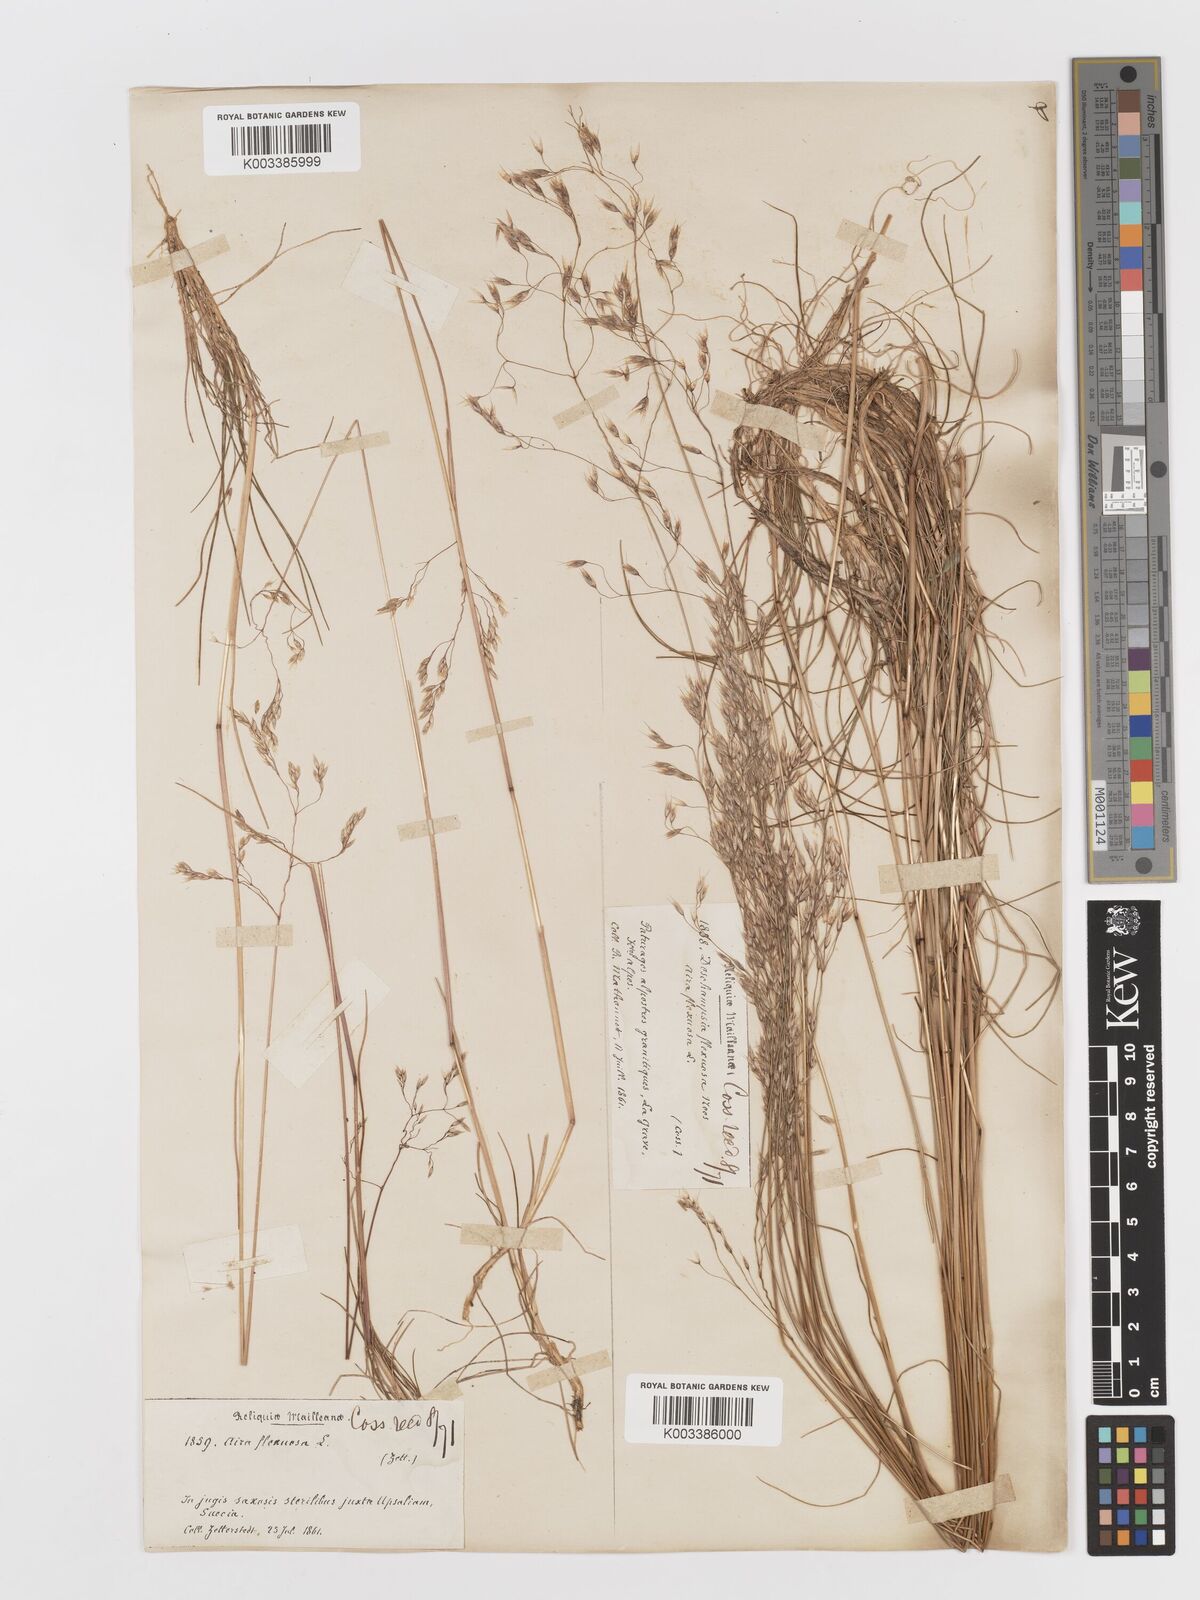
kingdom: Plantae
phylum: Tracheophyta
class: Liliopsida
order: Poales
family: Poaceae
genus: Avenella
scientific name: Avenella flexuosa
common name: Wavy hairgrass
